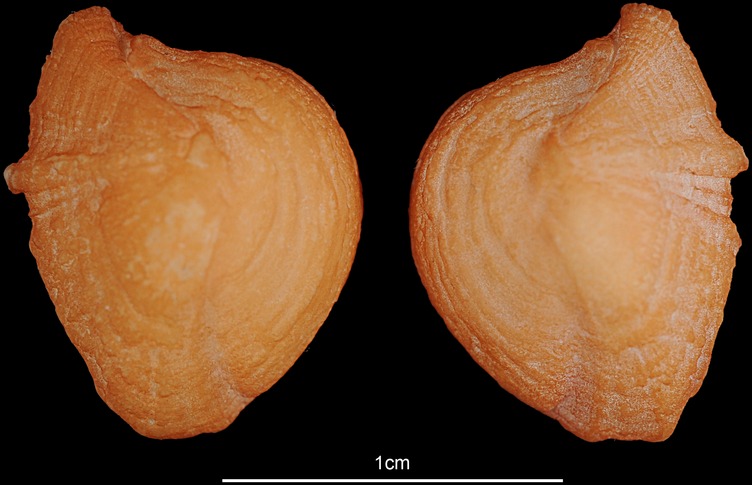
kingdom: Animalia
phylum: Chordata
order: Siluriformes
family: Ariidae
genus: Netuma
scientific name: Netuma thalassina
